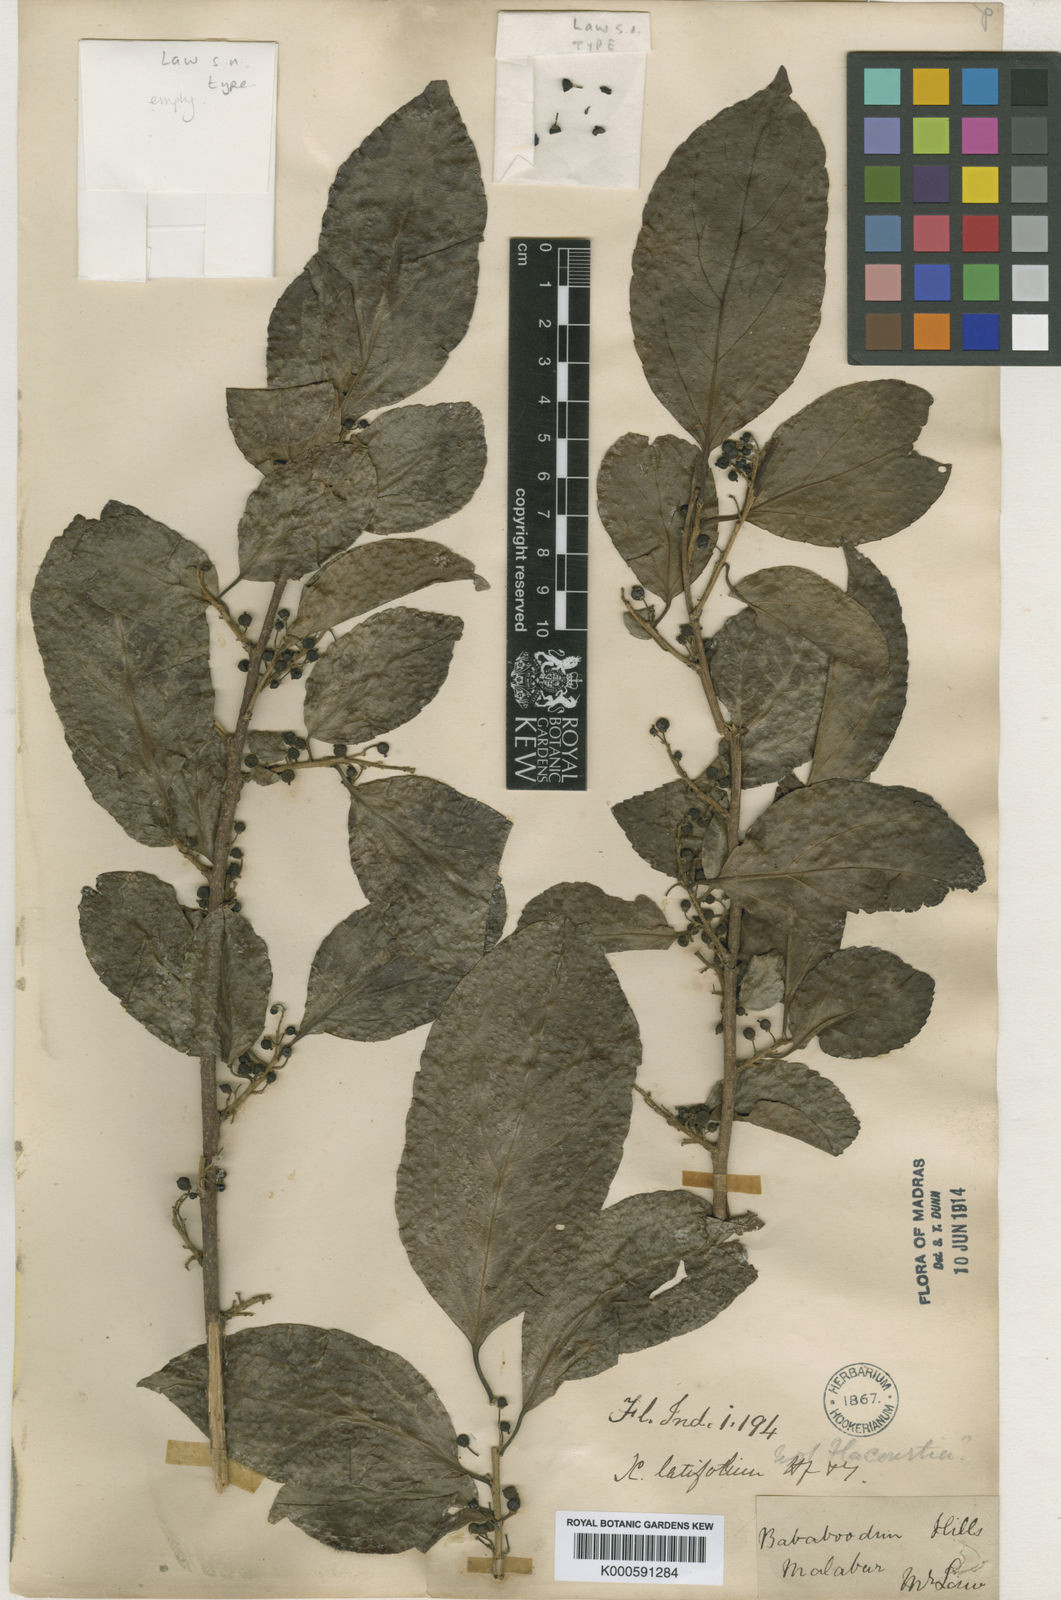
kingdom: Plantae
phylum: Tracheophyta
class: Magnoliopsida
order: Malpighiales
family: Salicaceae
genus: Flacourtia
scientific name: Flacourtia latifolia
